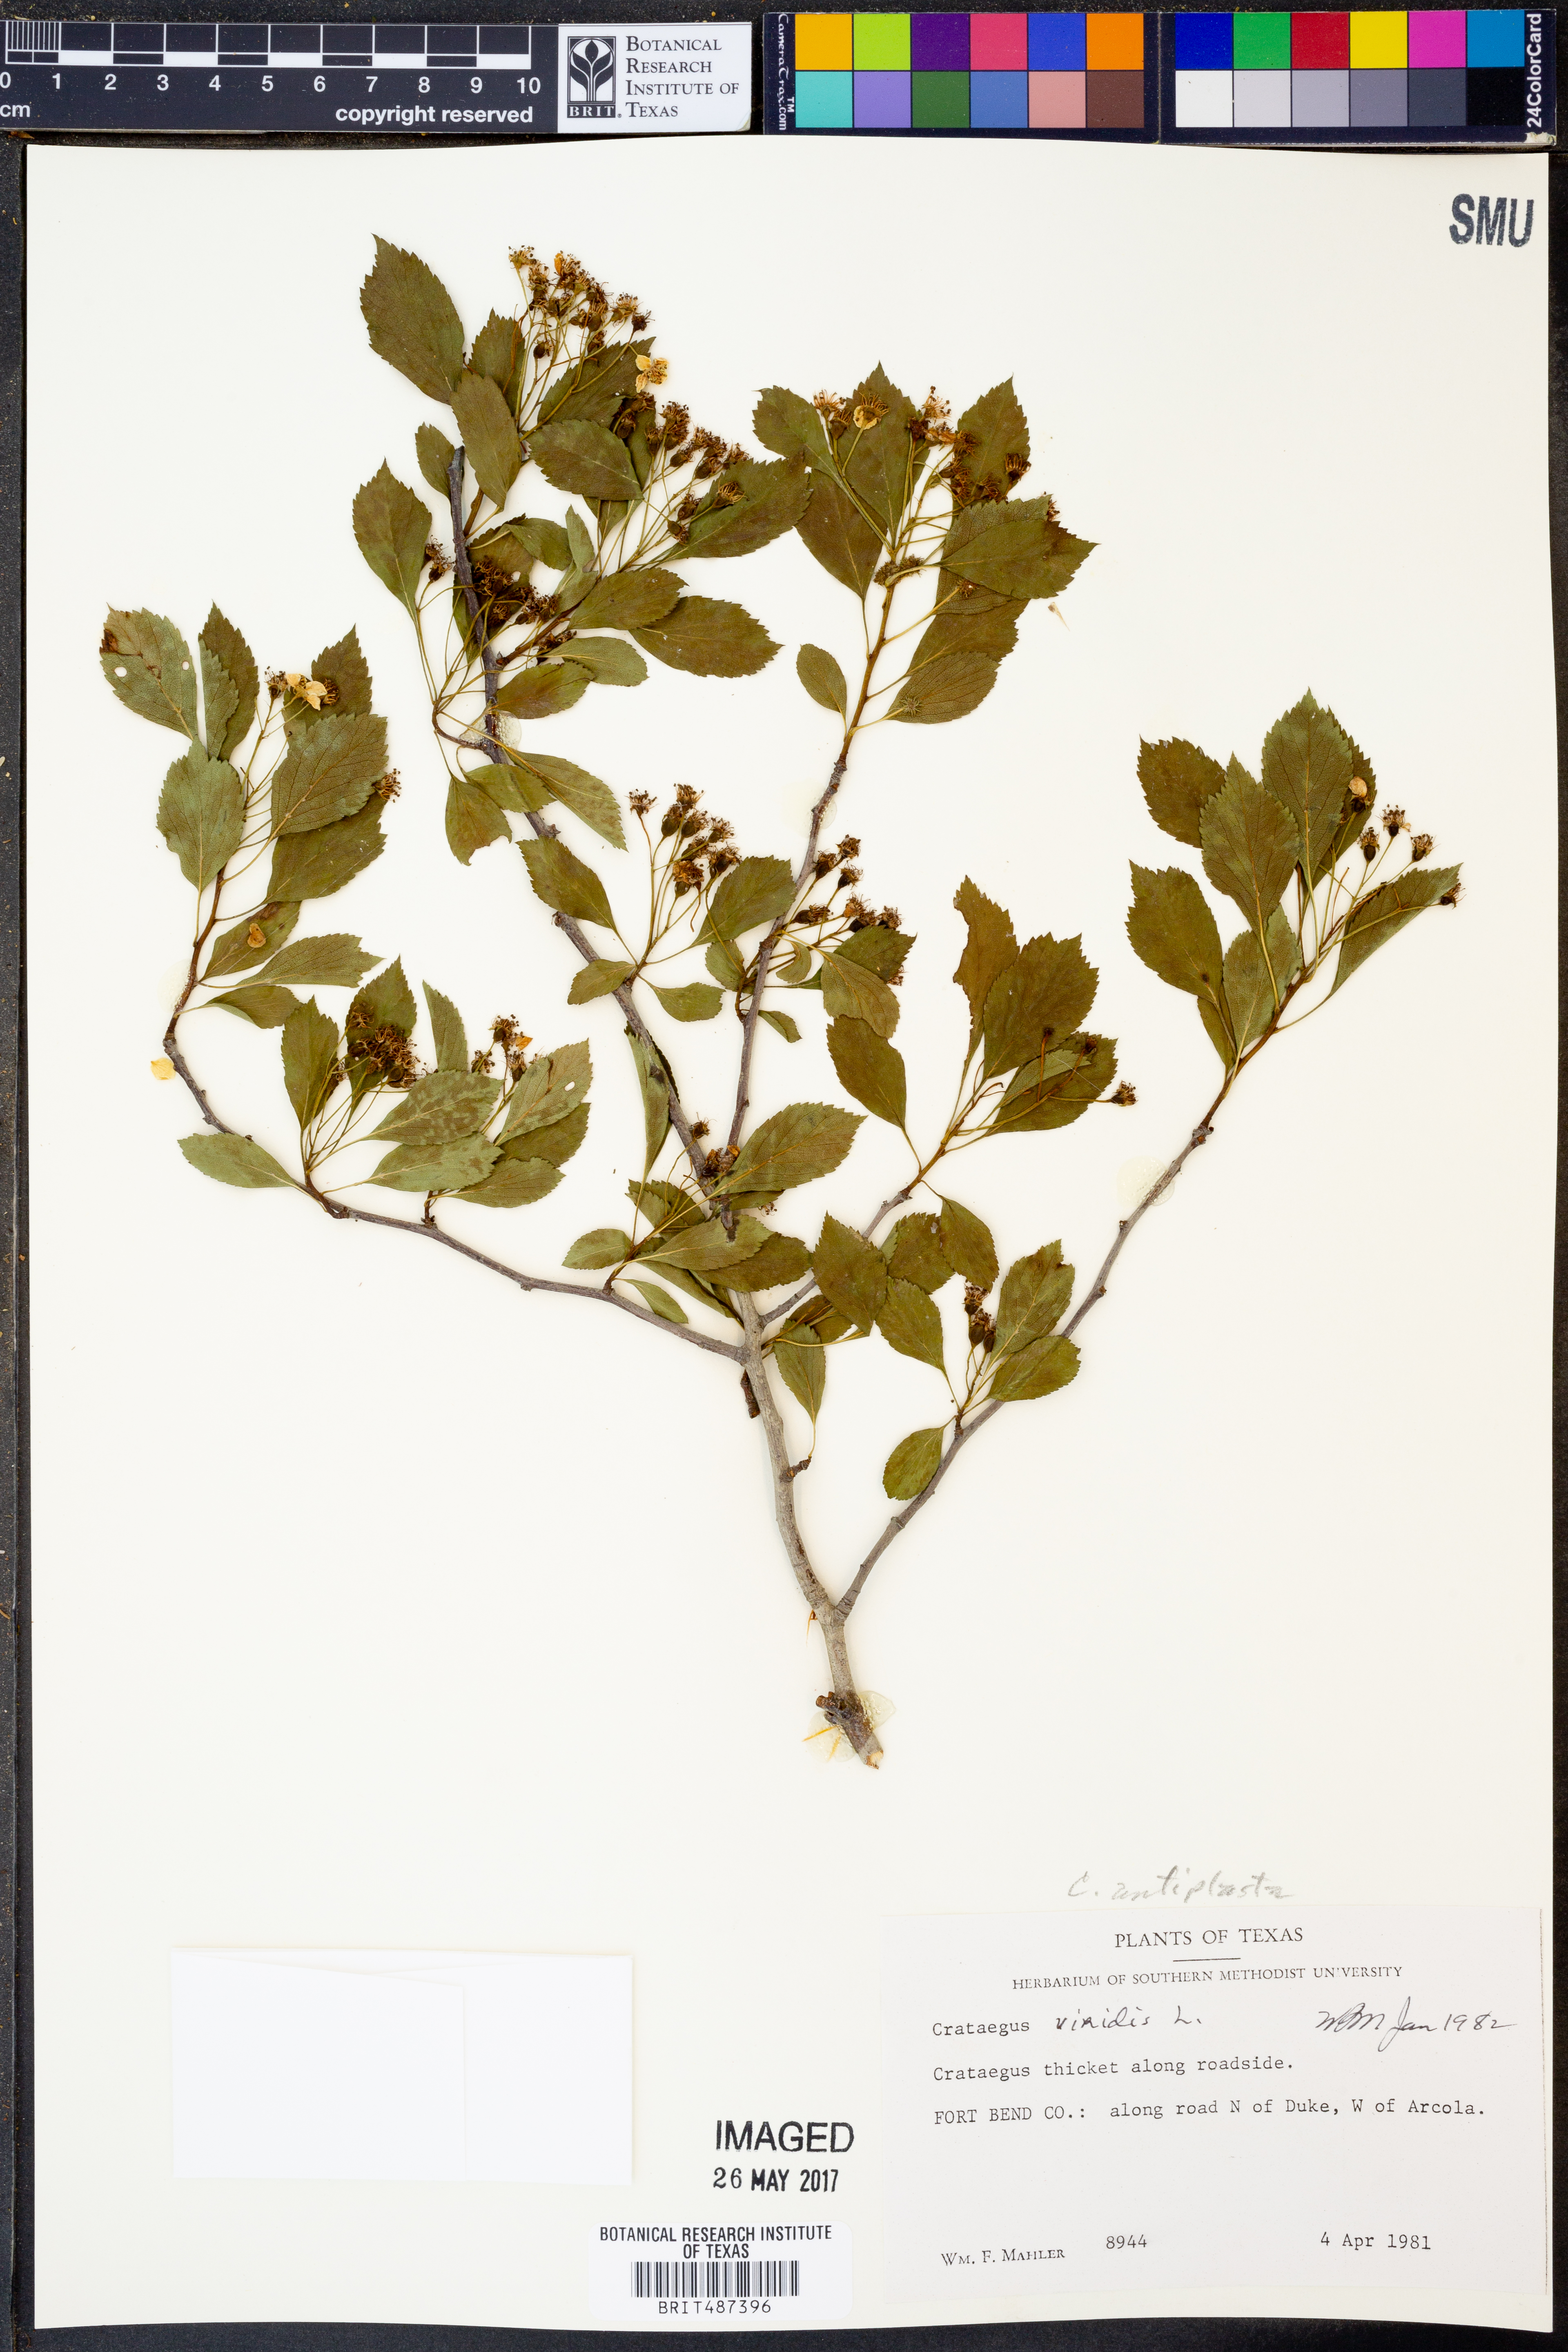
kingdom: Plantae
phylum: Tracheophyta
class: Magnoliopsida
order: Rosales
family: Rosaceae
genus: Crataegus
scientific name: Crataegus viridis
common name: Southernthorn
